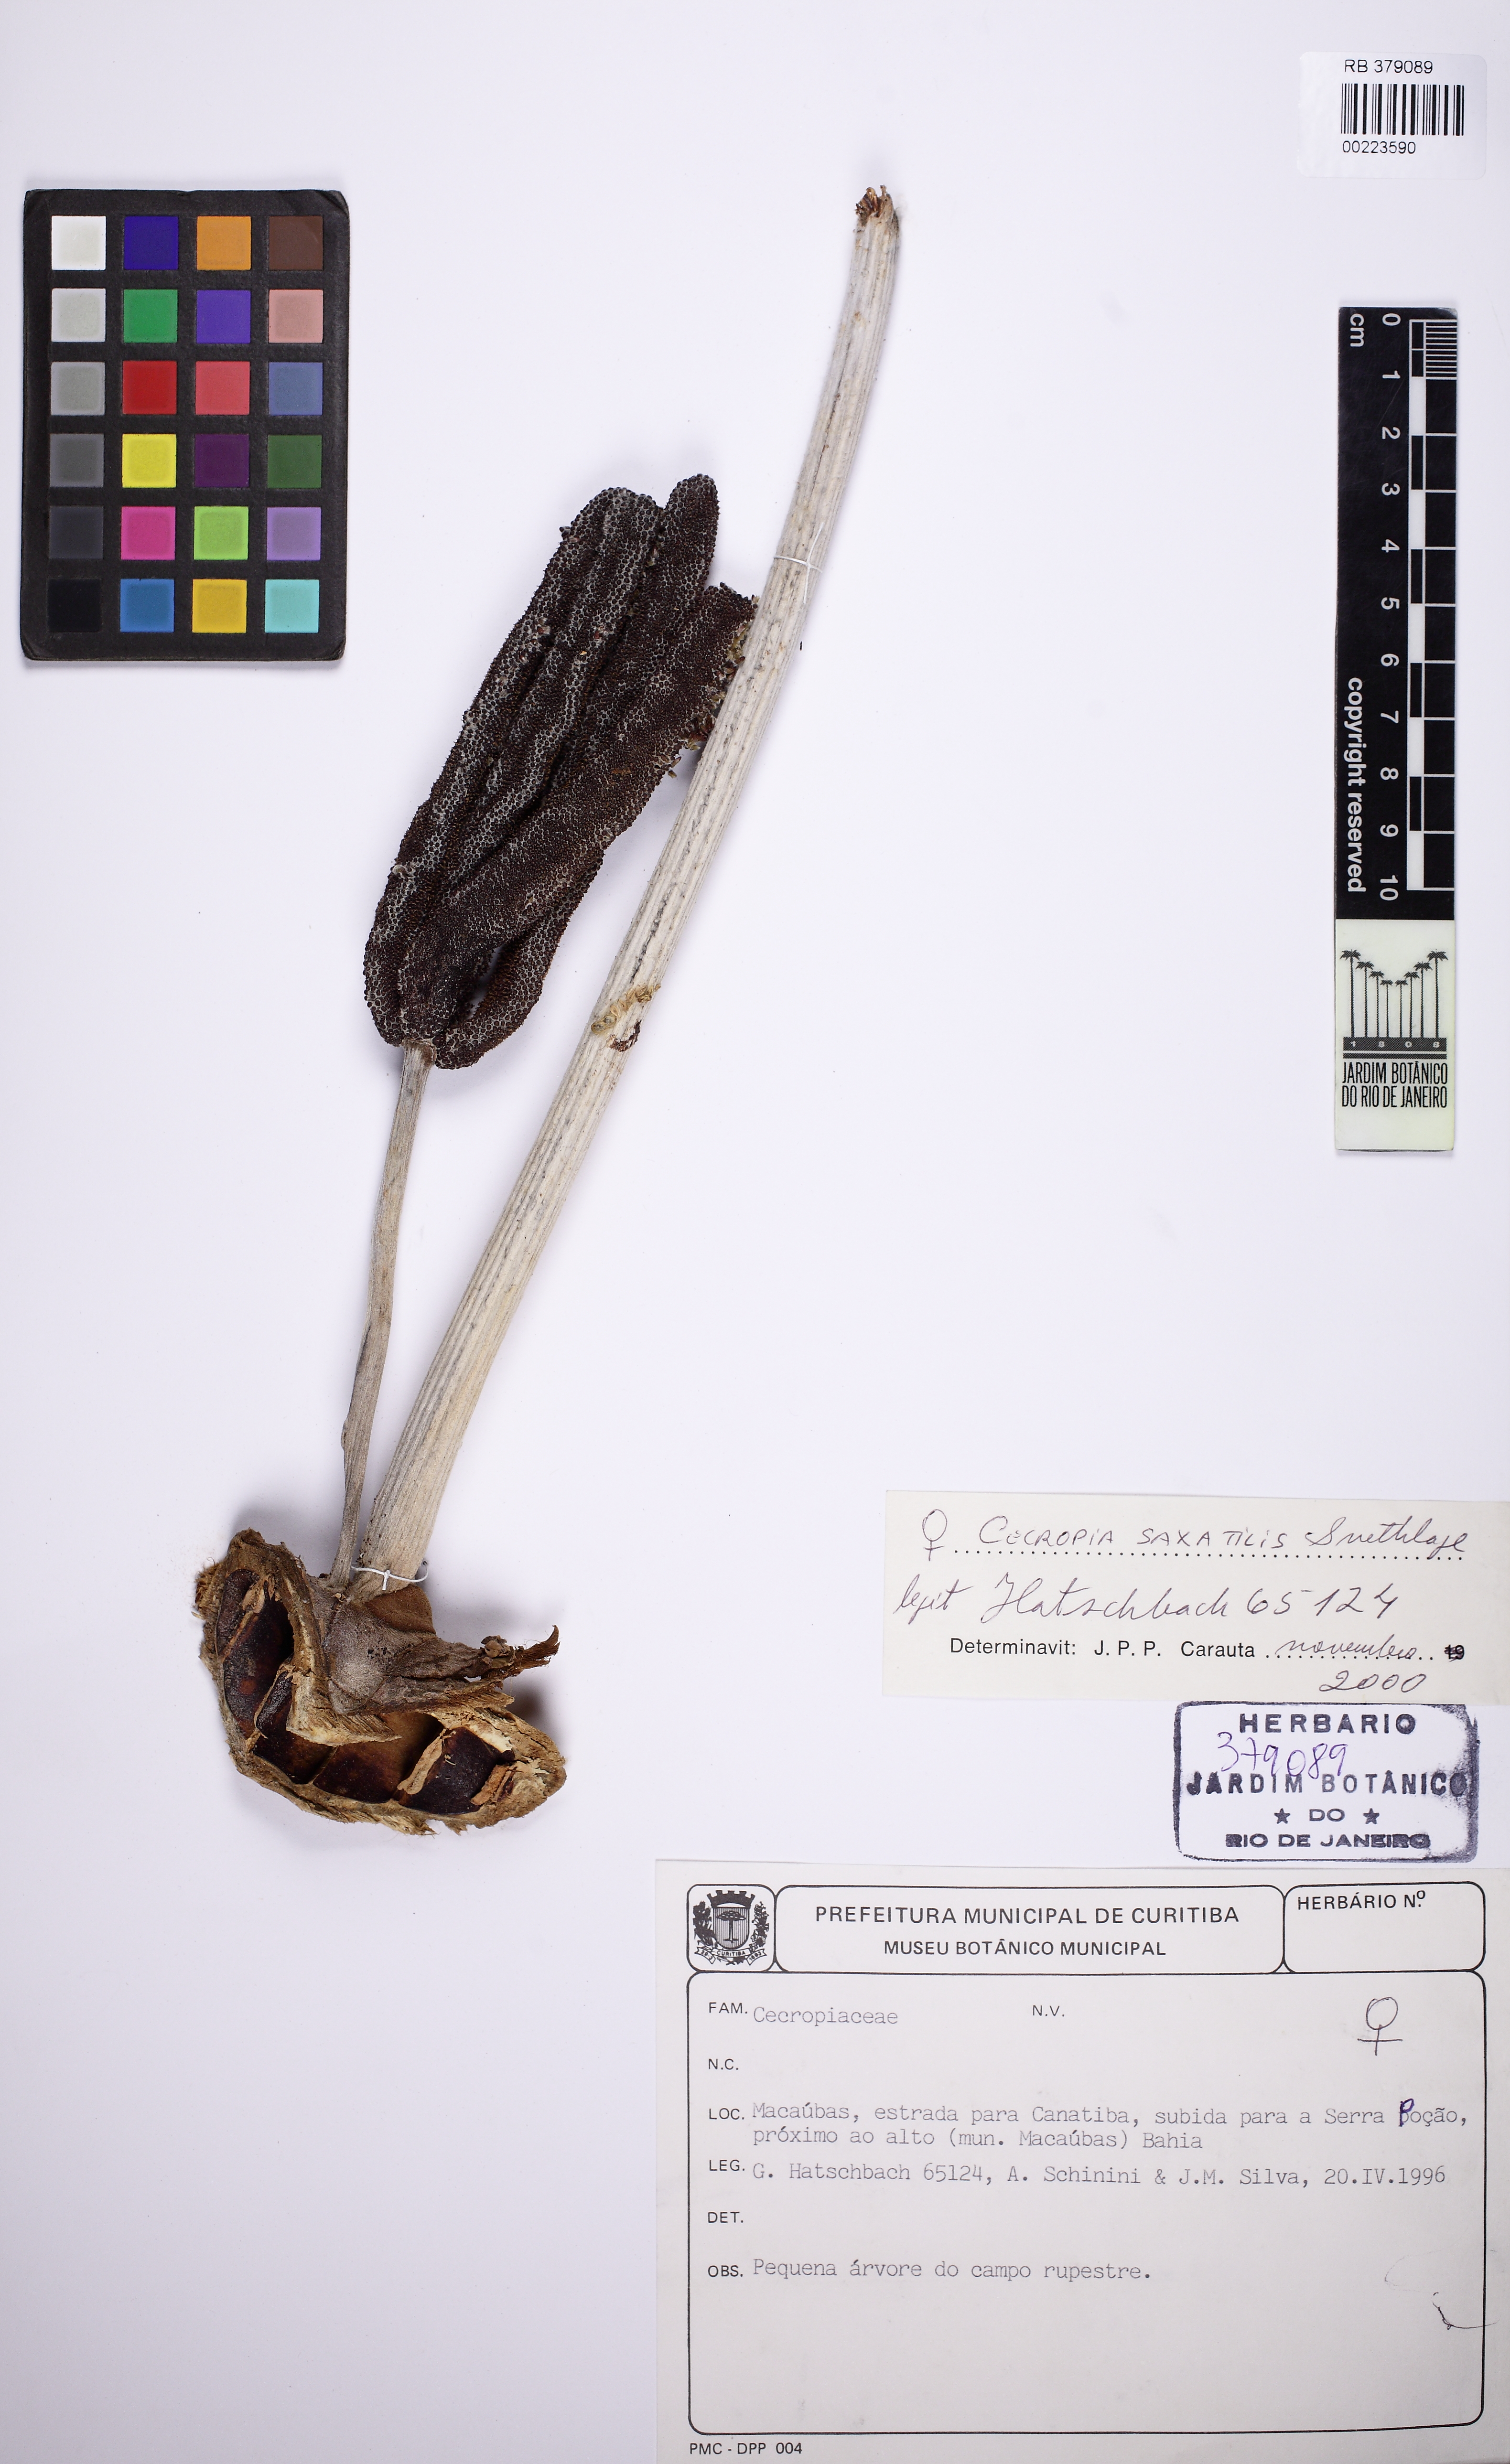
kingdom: Plantae
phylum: Tracheophyta
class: Magnoliopsida
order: Rosales
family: Urticaceae
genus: Cecropia
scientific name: Cecropia saxatilis
